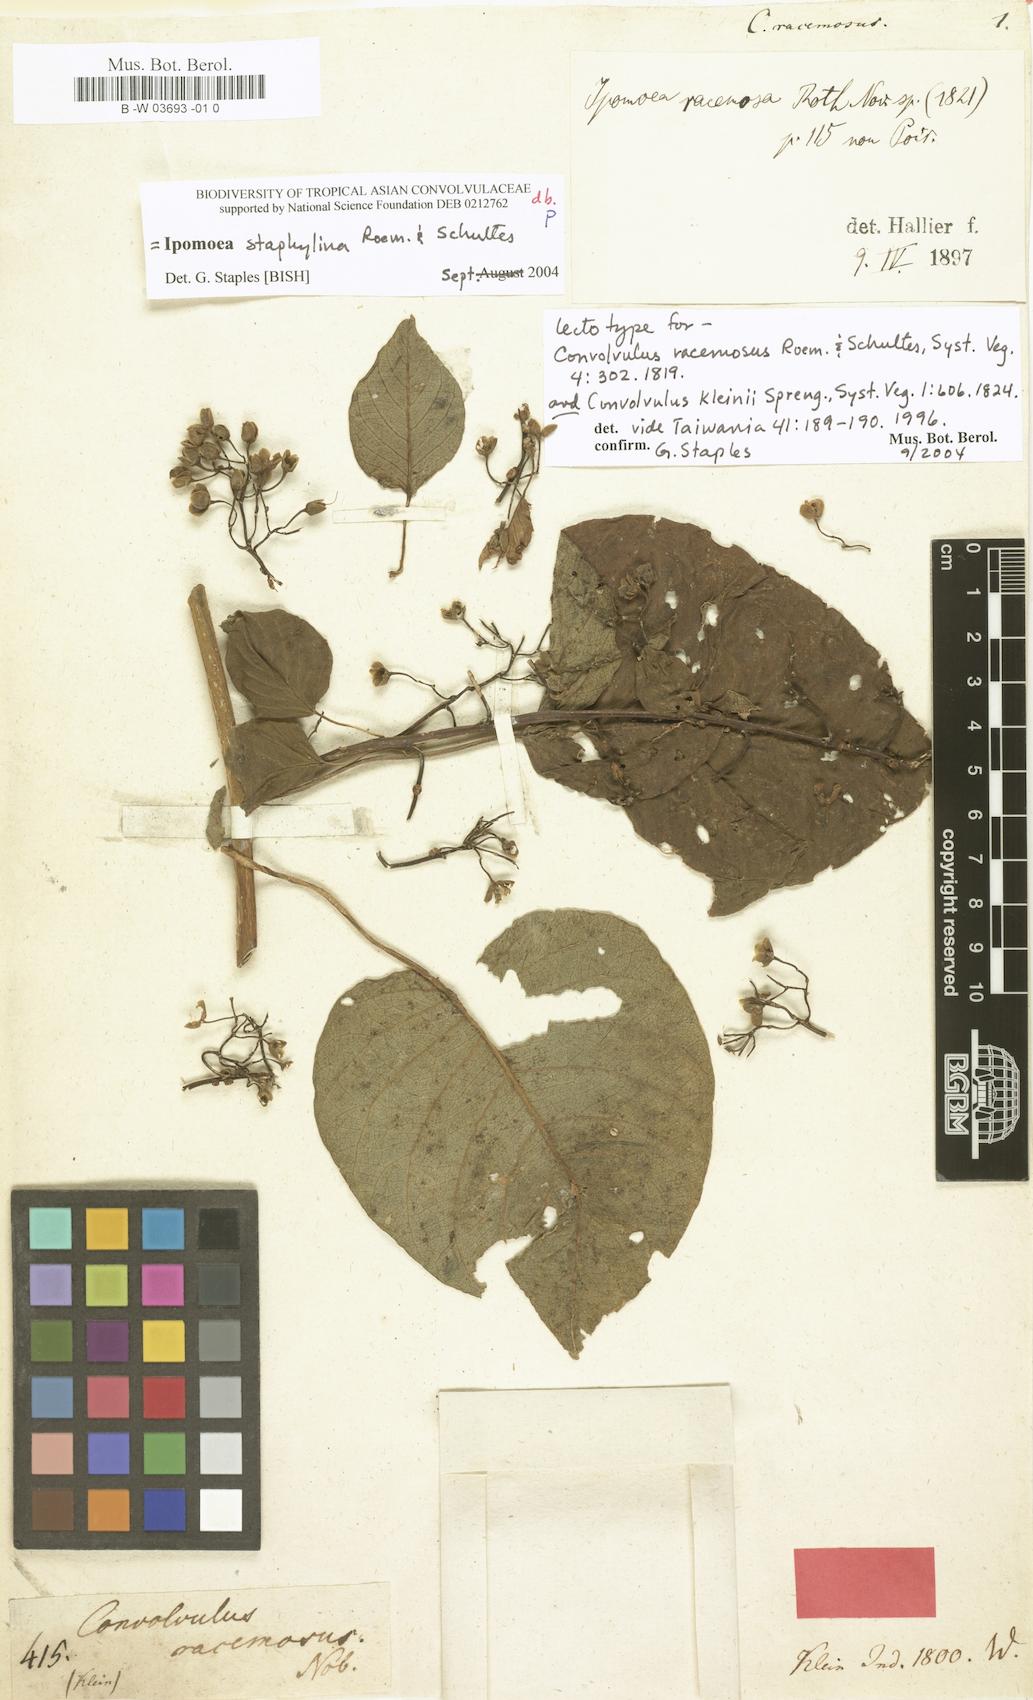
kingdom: Plantae
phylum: Tracheophyta
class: Magnoliopsida
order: Solanales
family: Convolvulaceae
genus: Ipomoea
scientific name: Ipomoea
